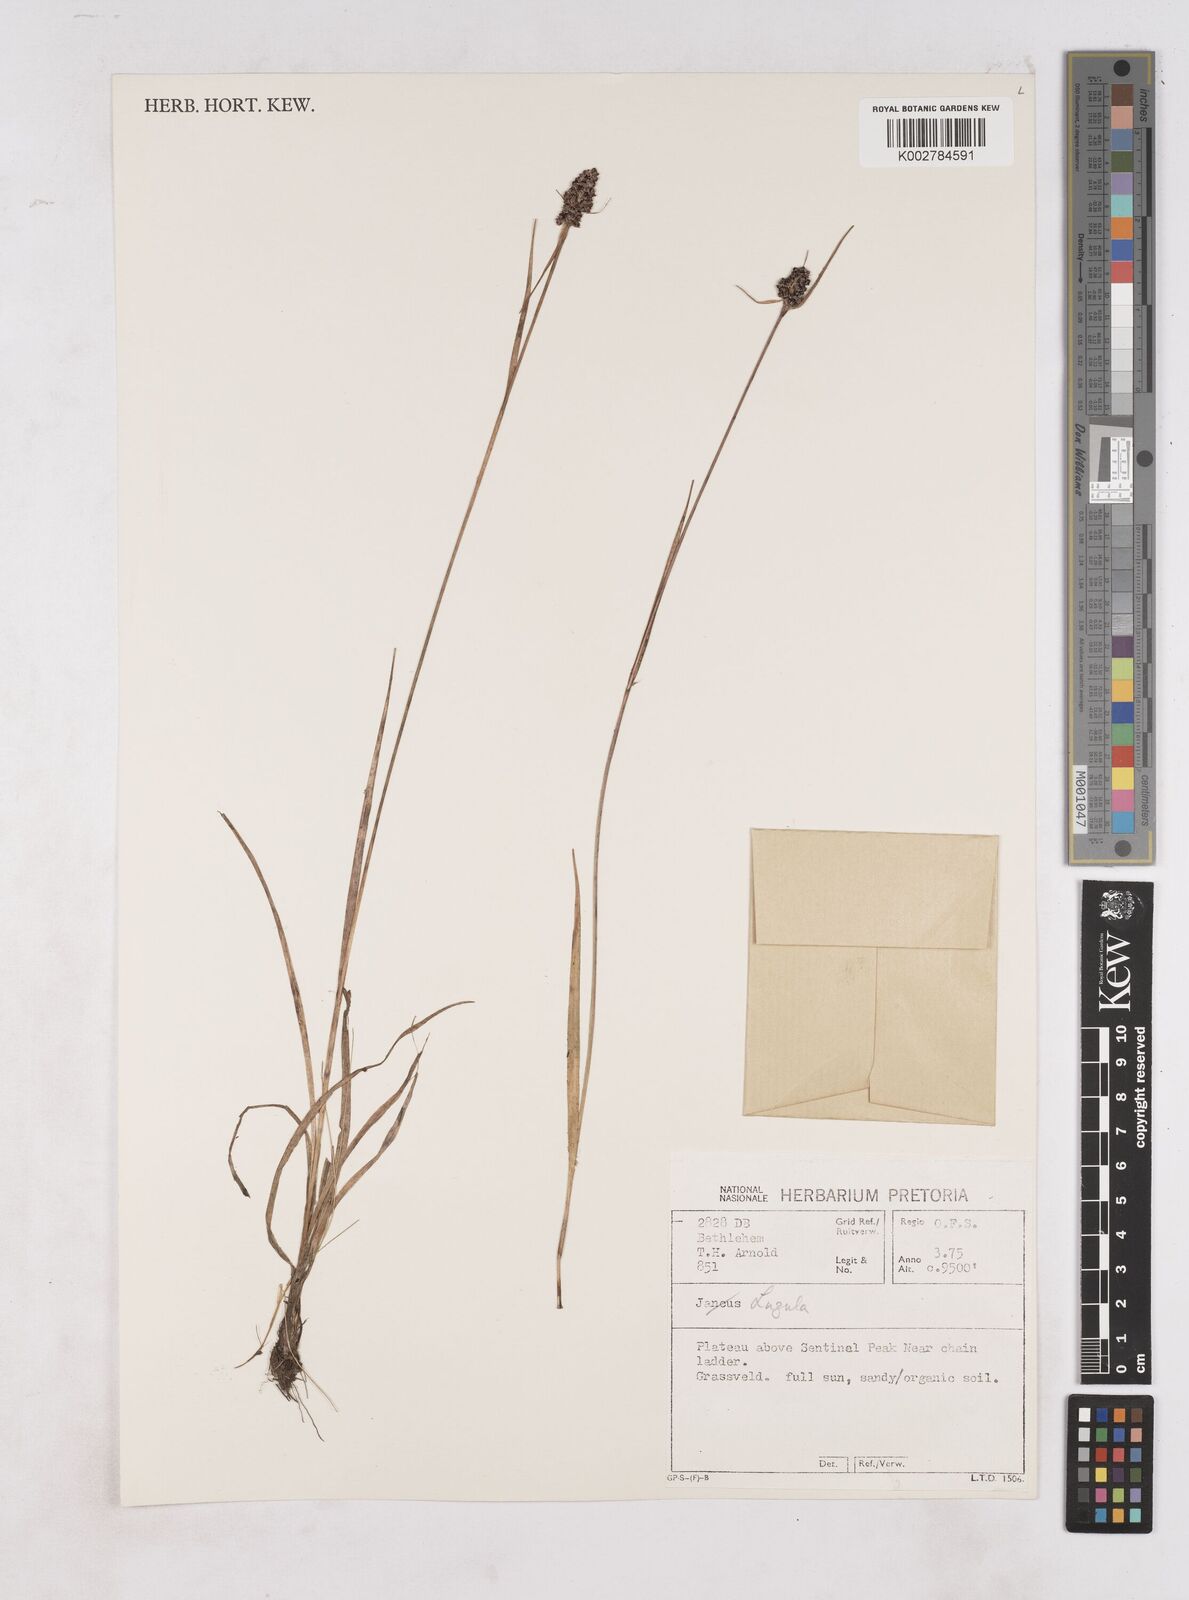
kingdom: Plantae
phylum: Tracheophyta
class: Liliopsida
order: Poales
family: Juncaceae
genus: Luzula
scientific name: Luzula africana
